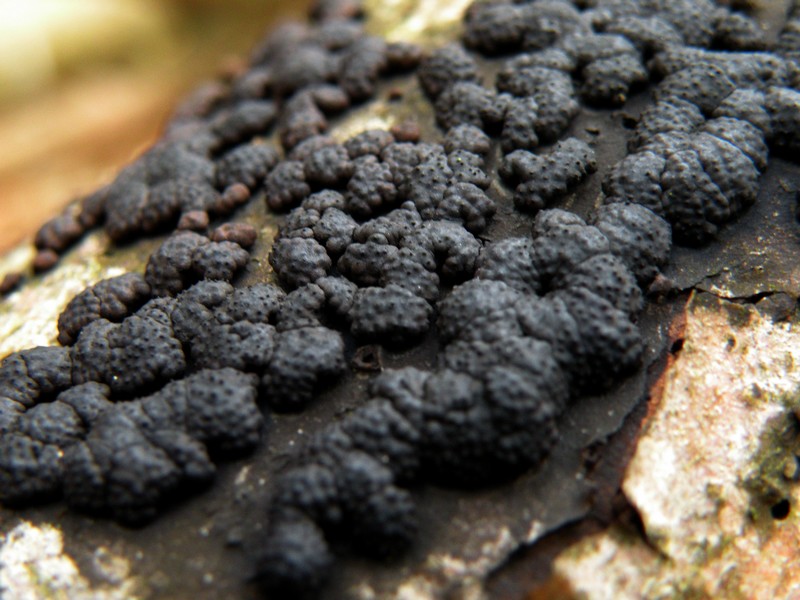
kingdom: Fungi
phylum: Ascomycota
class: Sordariomycetes
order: Xylariales
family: Hypoxylaceae
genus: Jackrogersella
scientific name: Jackrogersella cohaerens
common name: sammenflydende kulbær
